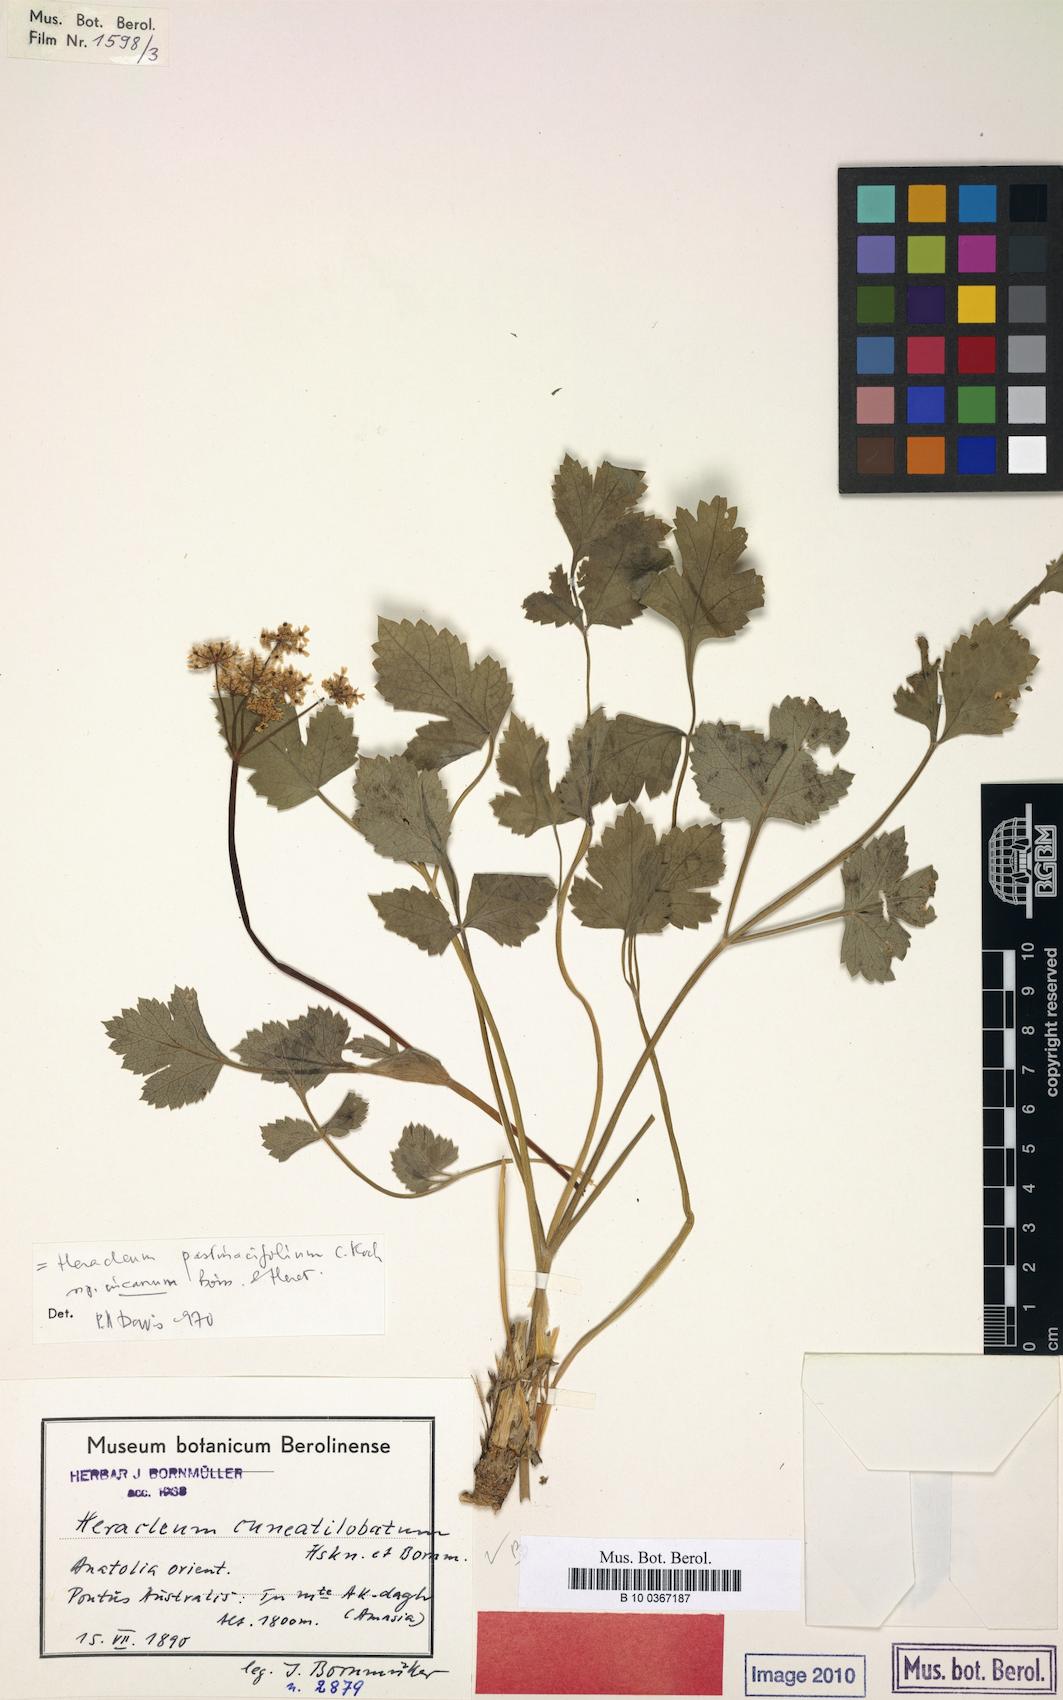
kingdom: Plantae
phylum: Tracheophyta
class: Magnoliopsida
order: Apiales
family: Apiaceae
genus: Heracleum
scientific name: Heracleum pastinacifolium
